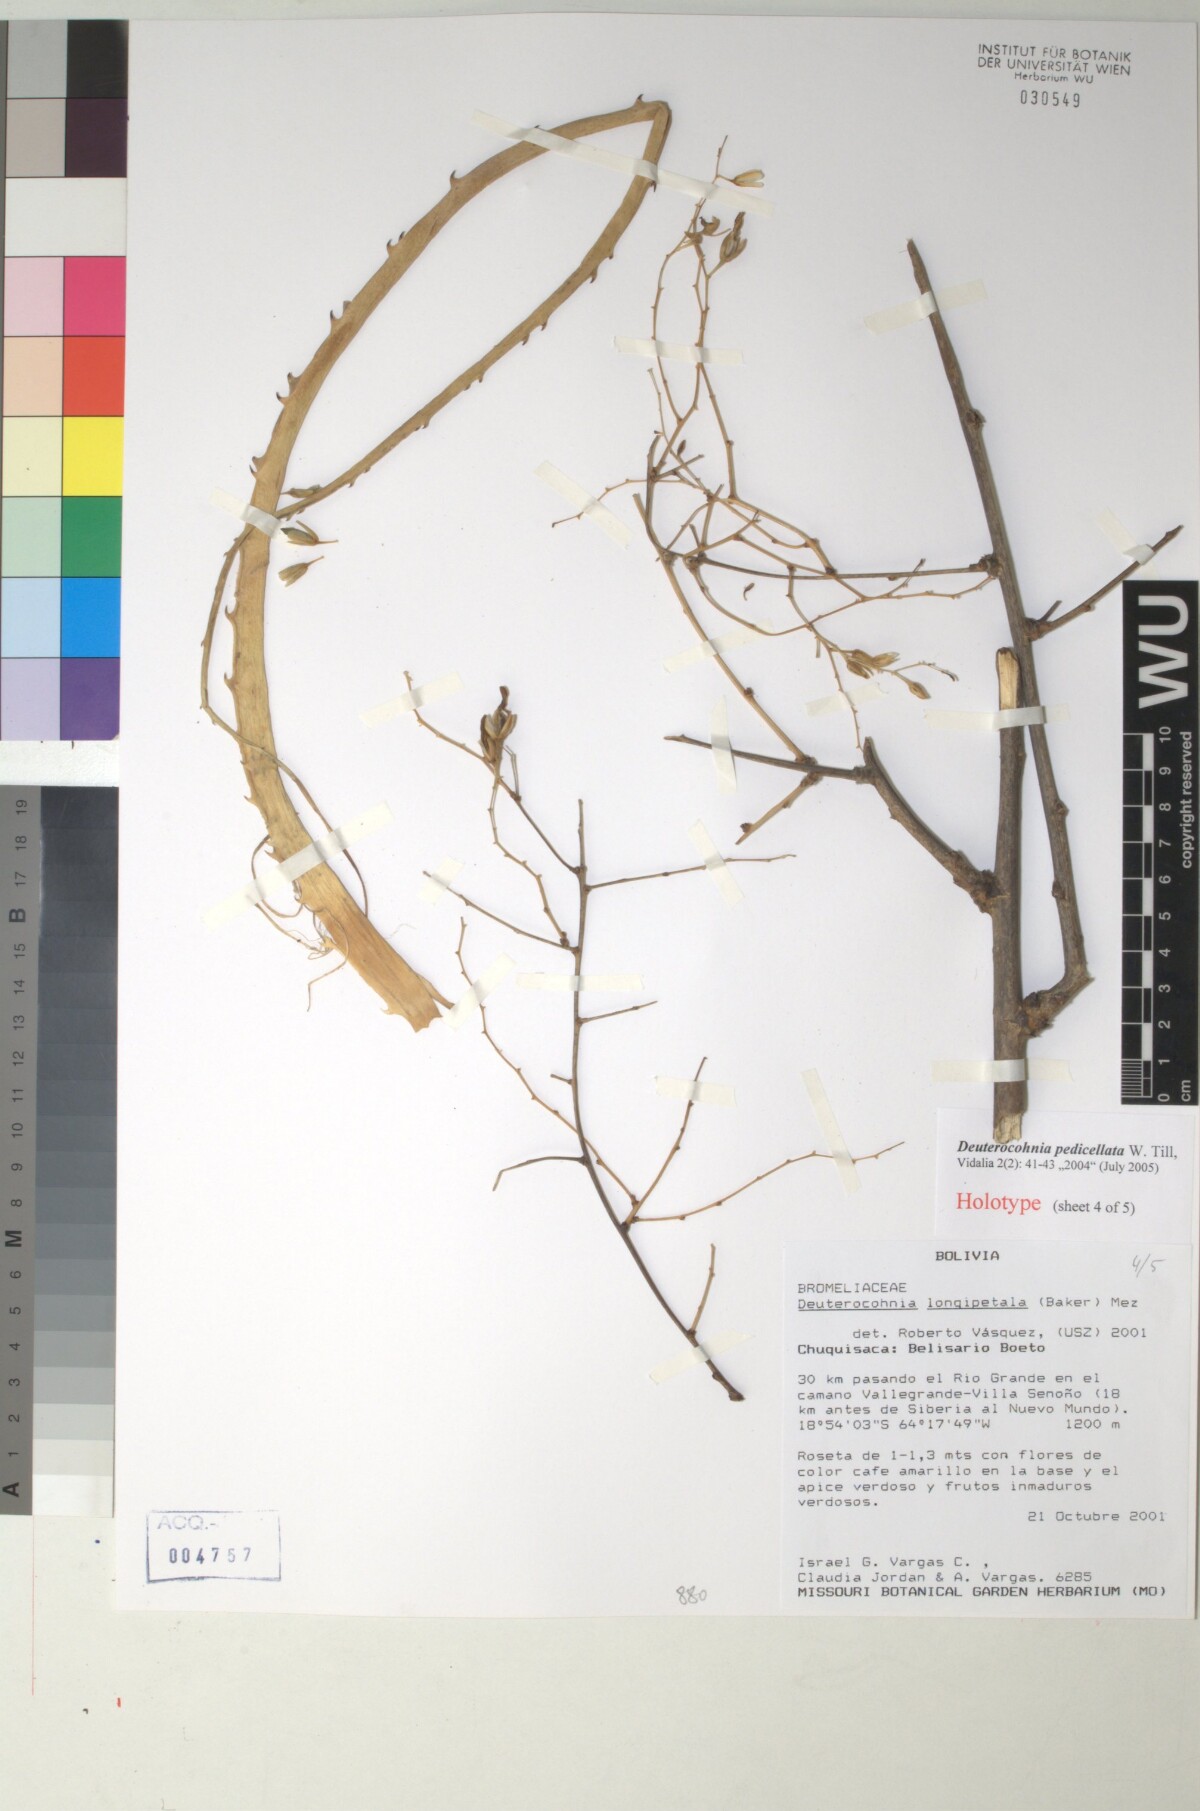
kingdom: Plantae
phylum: Tracheophyta
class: Liliopsida
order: Poales
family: Bromeliaceae
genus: Deuterocohnia
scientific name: Deuterocohnia meziana
